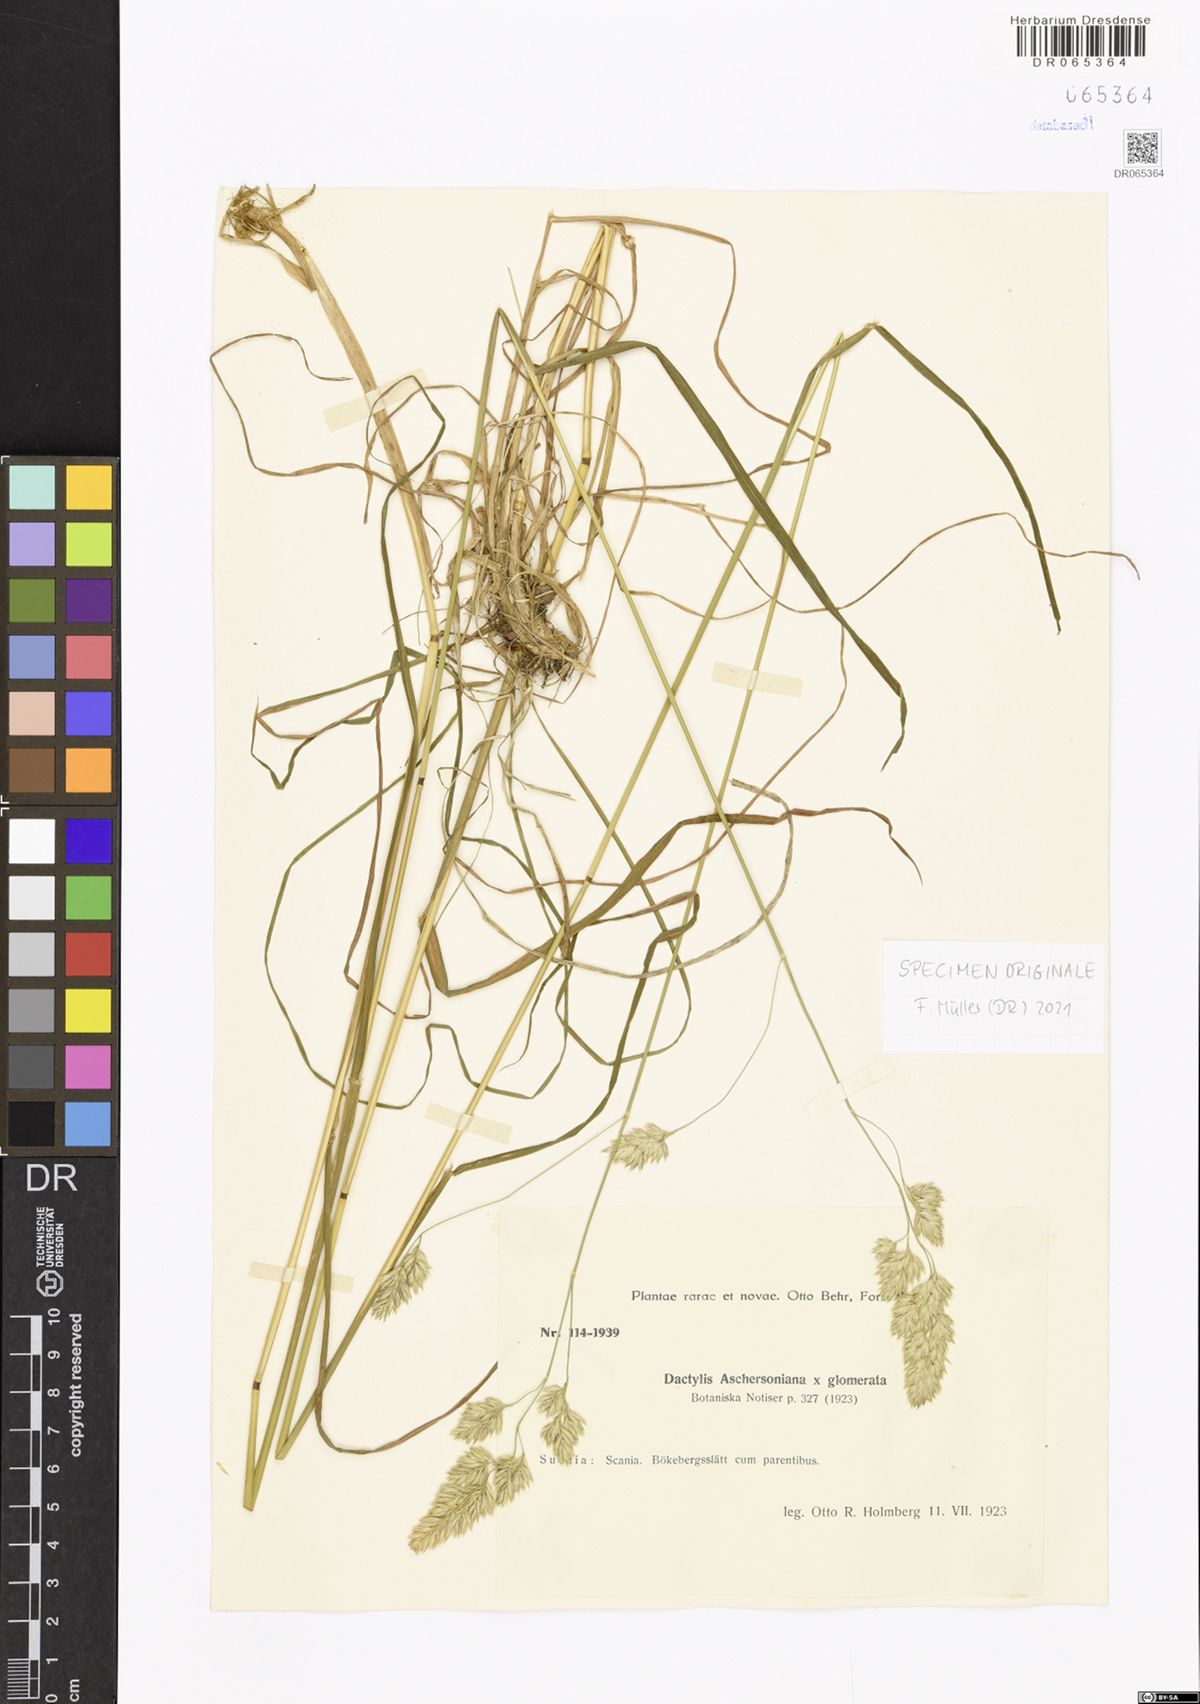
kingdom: Plantae
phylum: Tracheophyta
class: Liliopsida
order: Poales
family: Poaceae
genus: Dactylis
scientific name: Dactylis glomerata
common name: Orchardgrass
